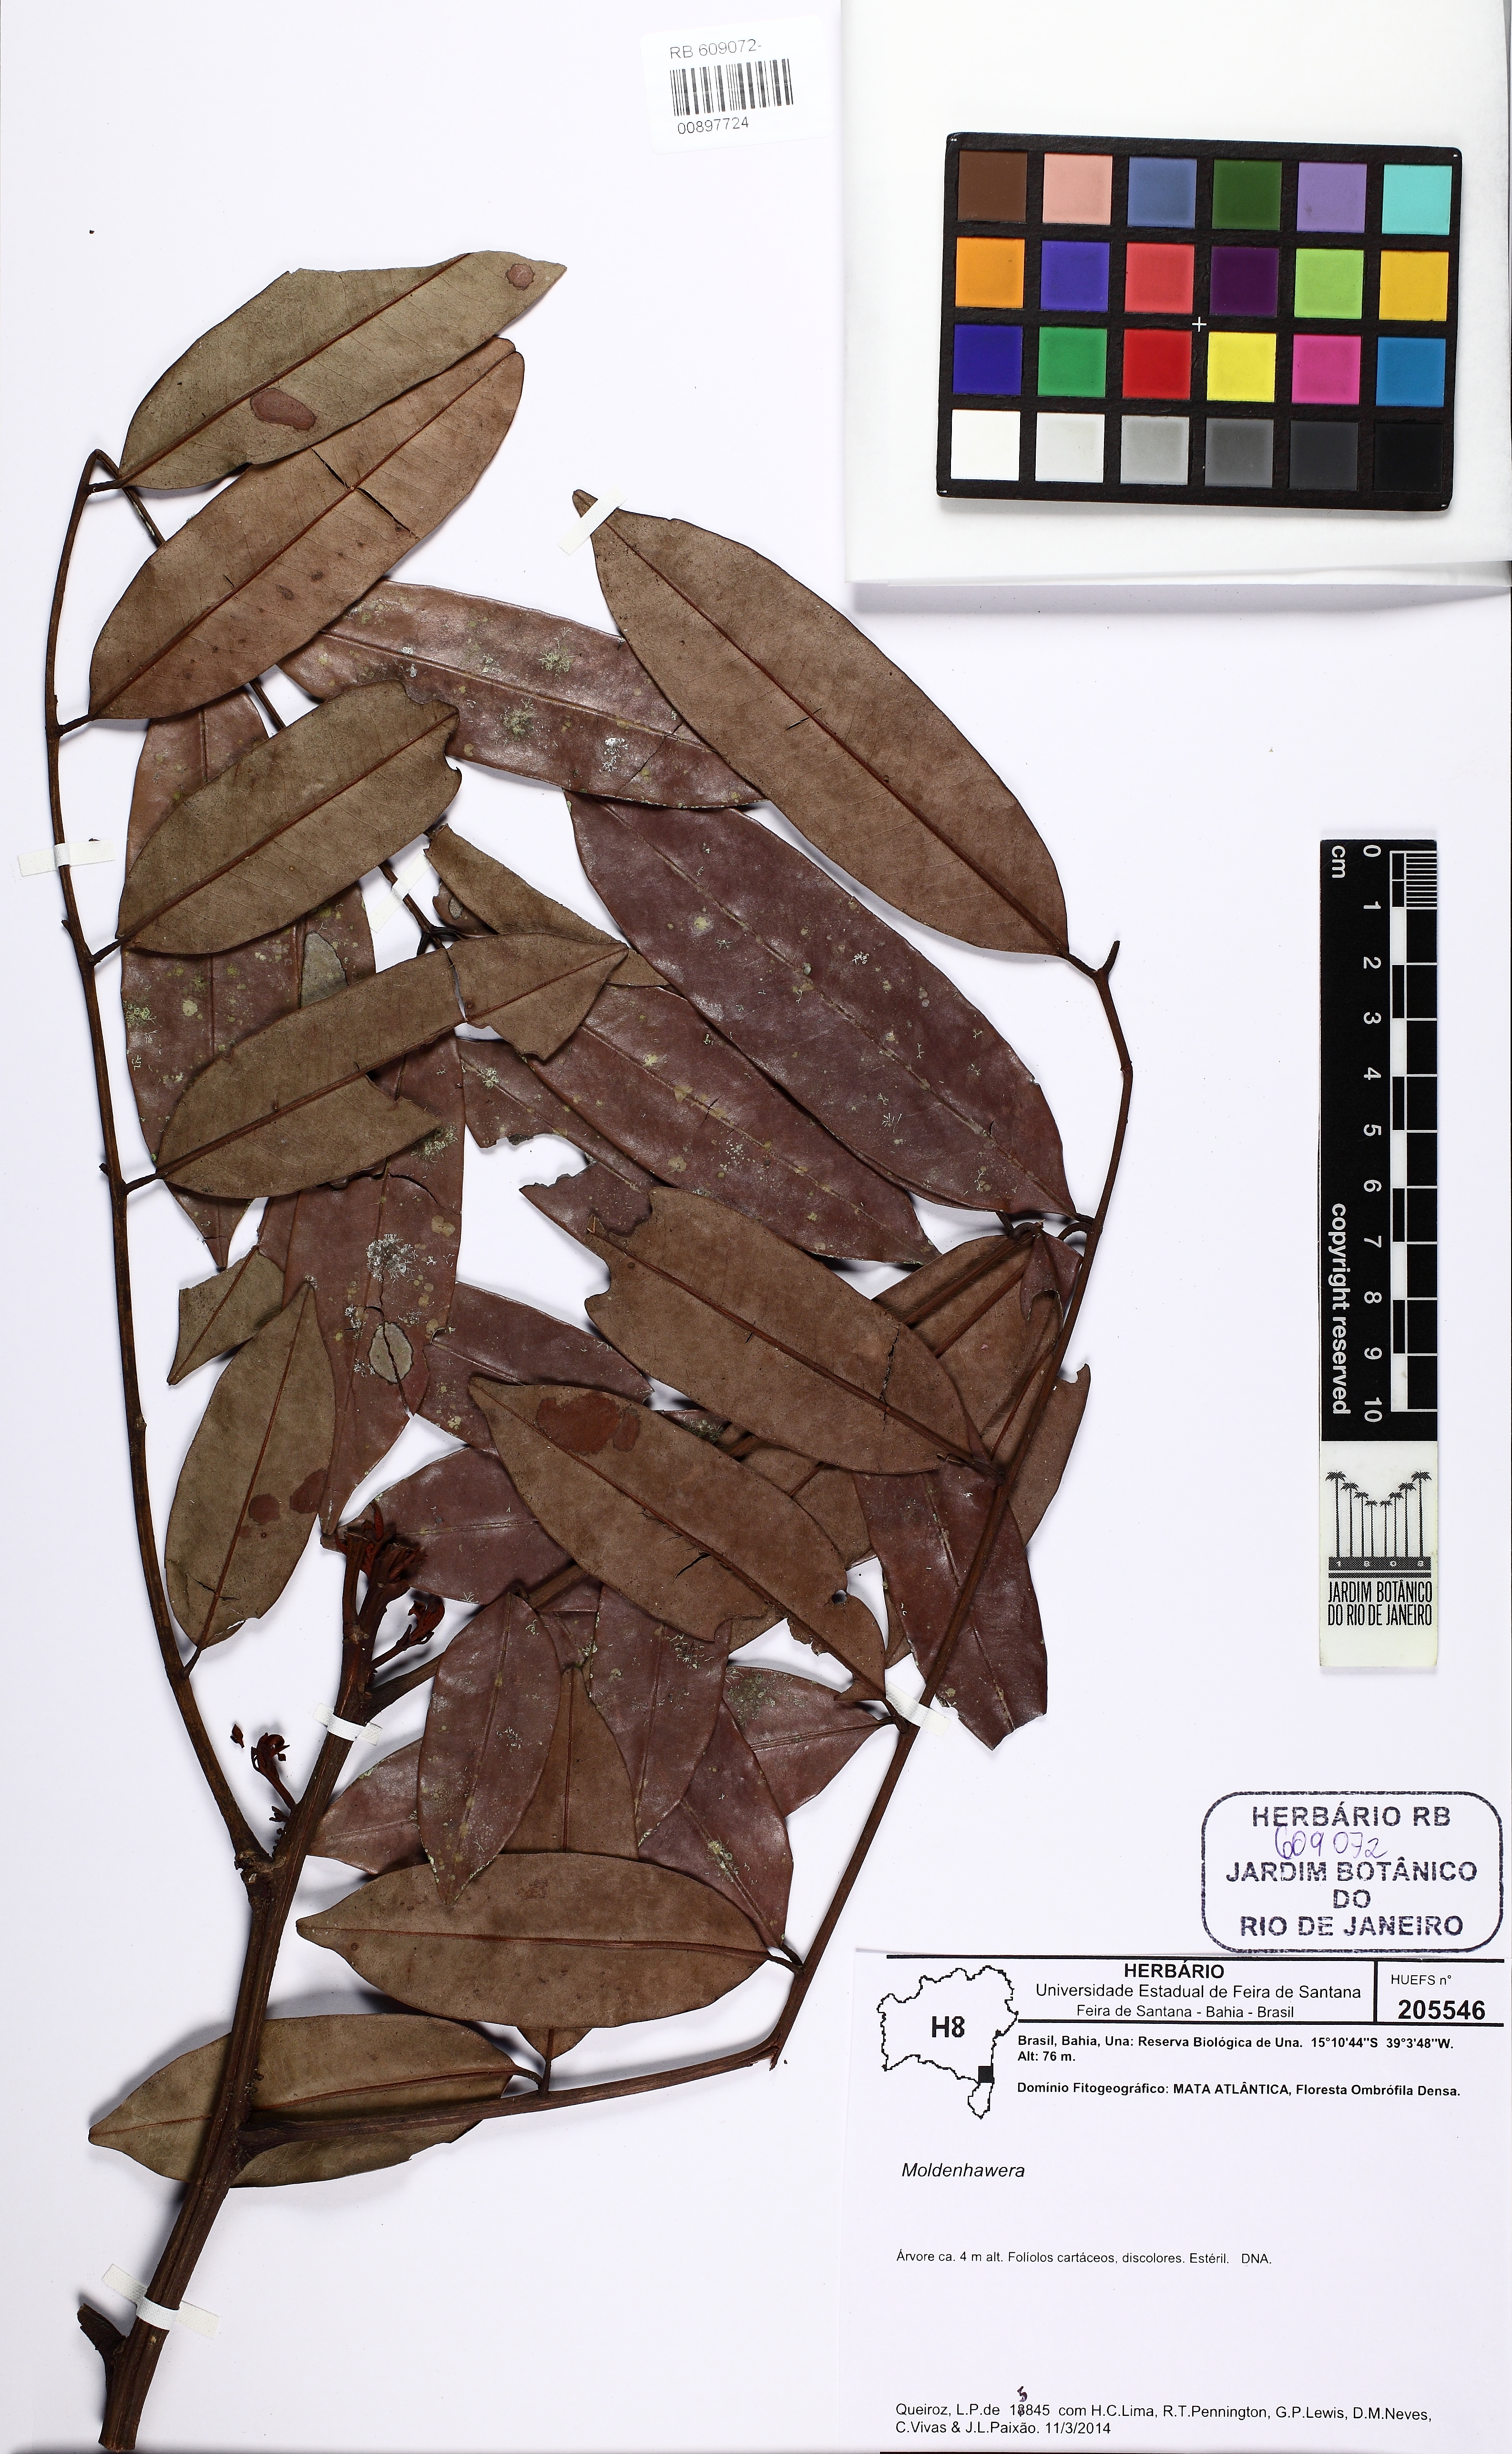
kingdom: Plantae
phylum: Tracheophyta
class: Magnoliopsida
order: Fabales
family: Fabaceae
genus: Moldenhawera
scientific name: Moldenhawera
